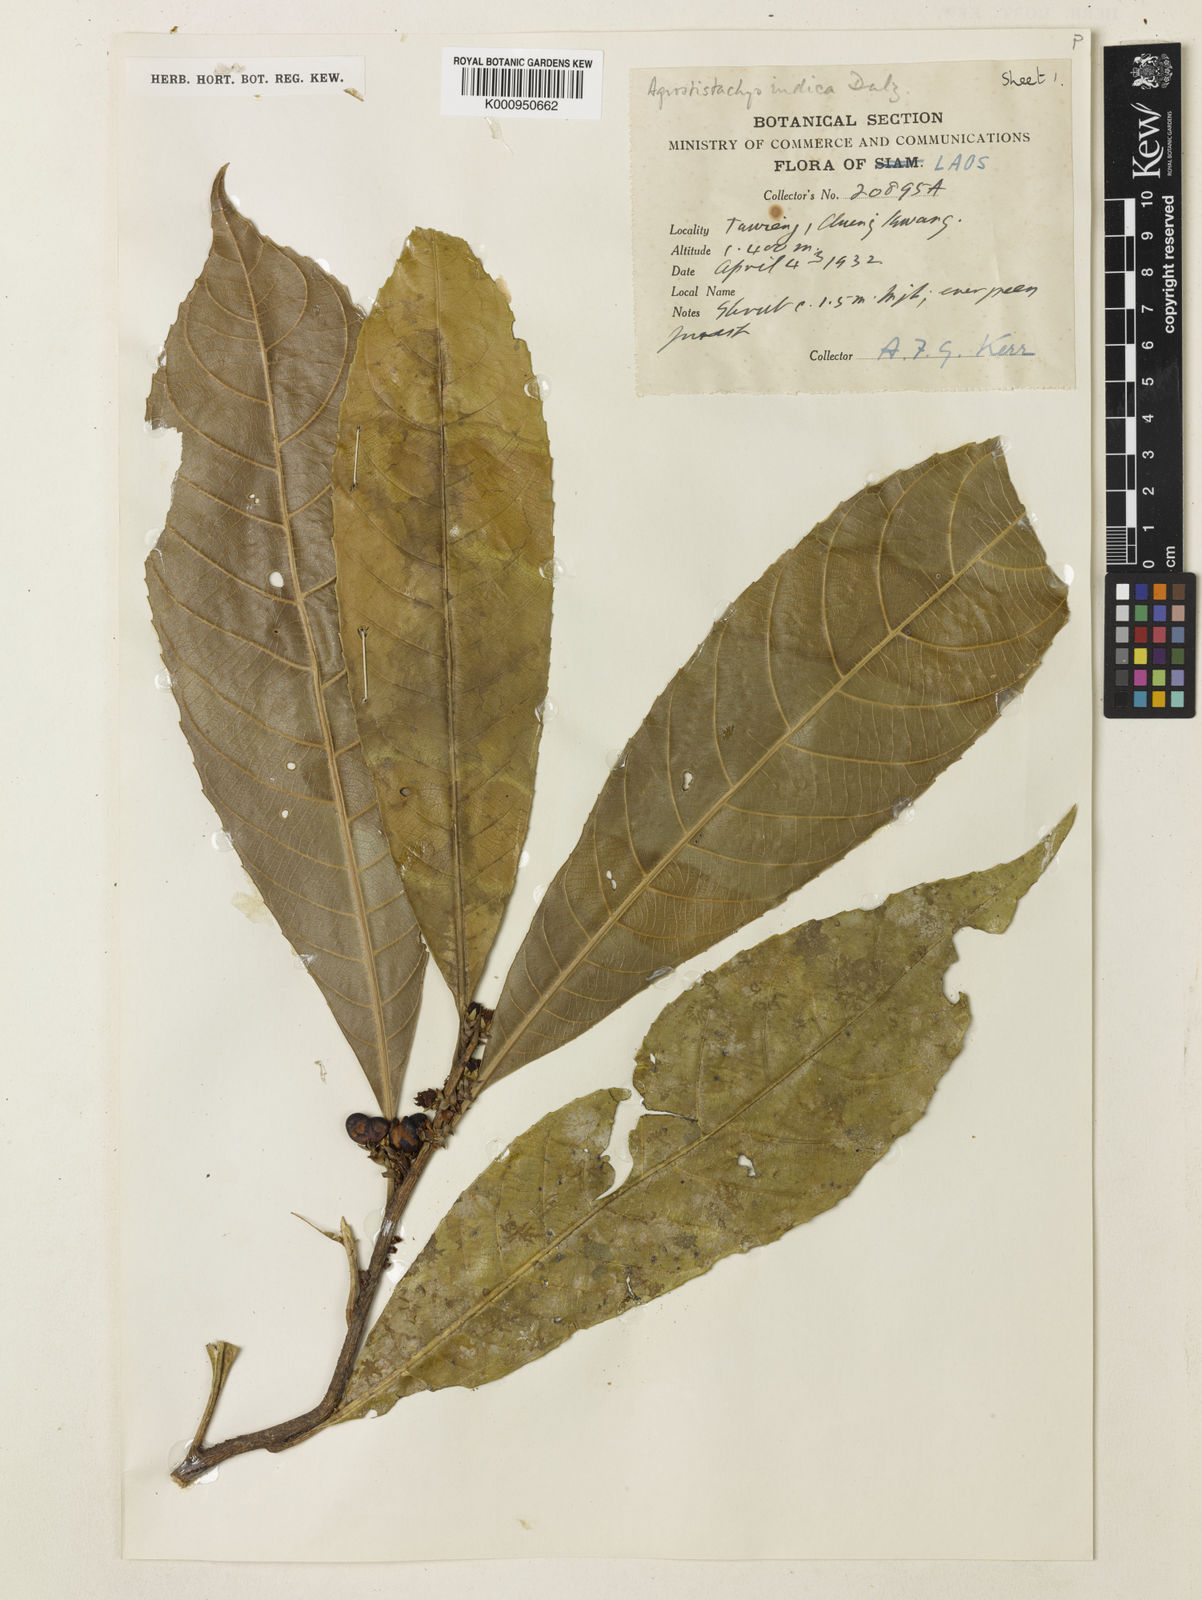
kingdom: Plantae
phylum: Tracheophyta
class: Magnoliopsida
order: Malpighiales
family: Euphorbiaceae
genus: Agrostistachys
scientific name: Agrostistachys indica
